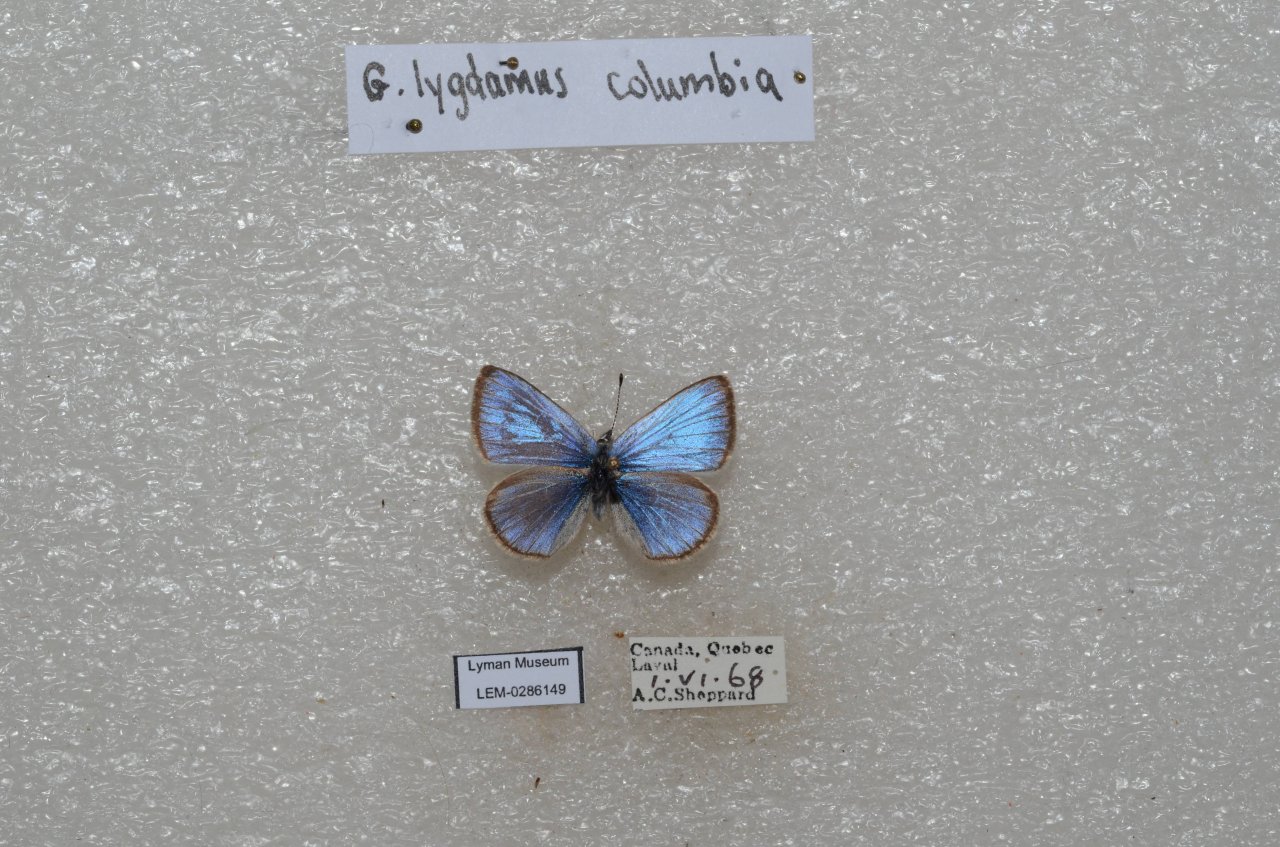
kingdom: Animalia
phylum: Arthropoda
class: Insecta
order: Lepidoptera
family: Lycaenidae
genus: Glaucopsyche
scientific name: Glaucopsyche lygdamus
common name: Silvery Blue
